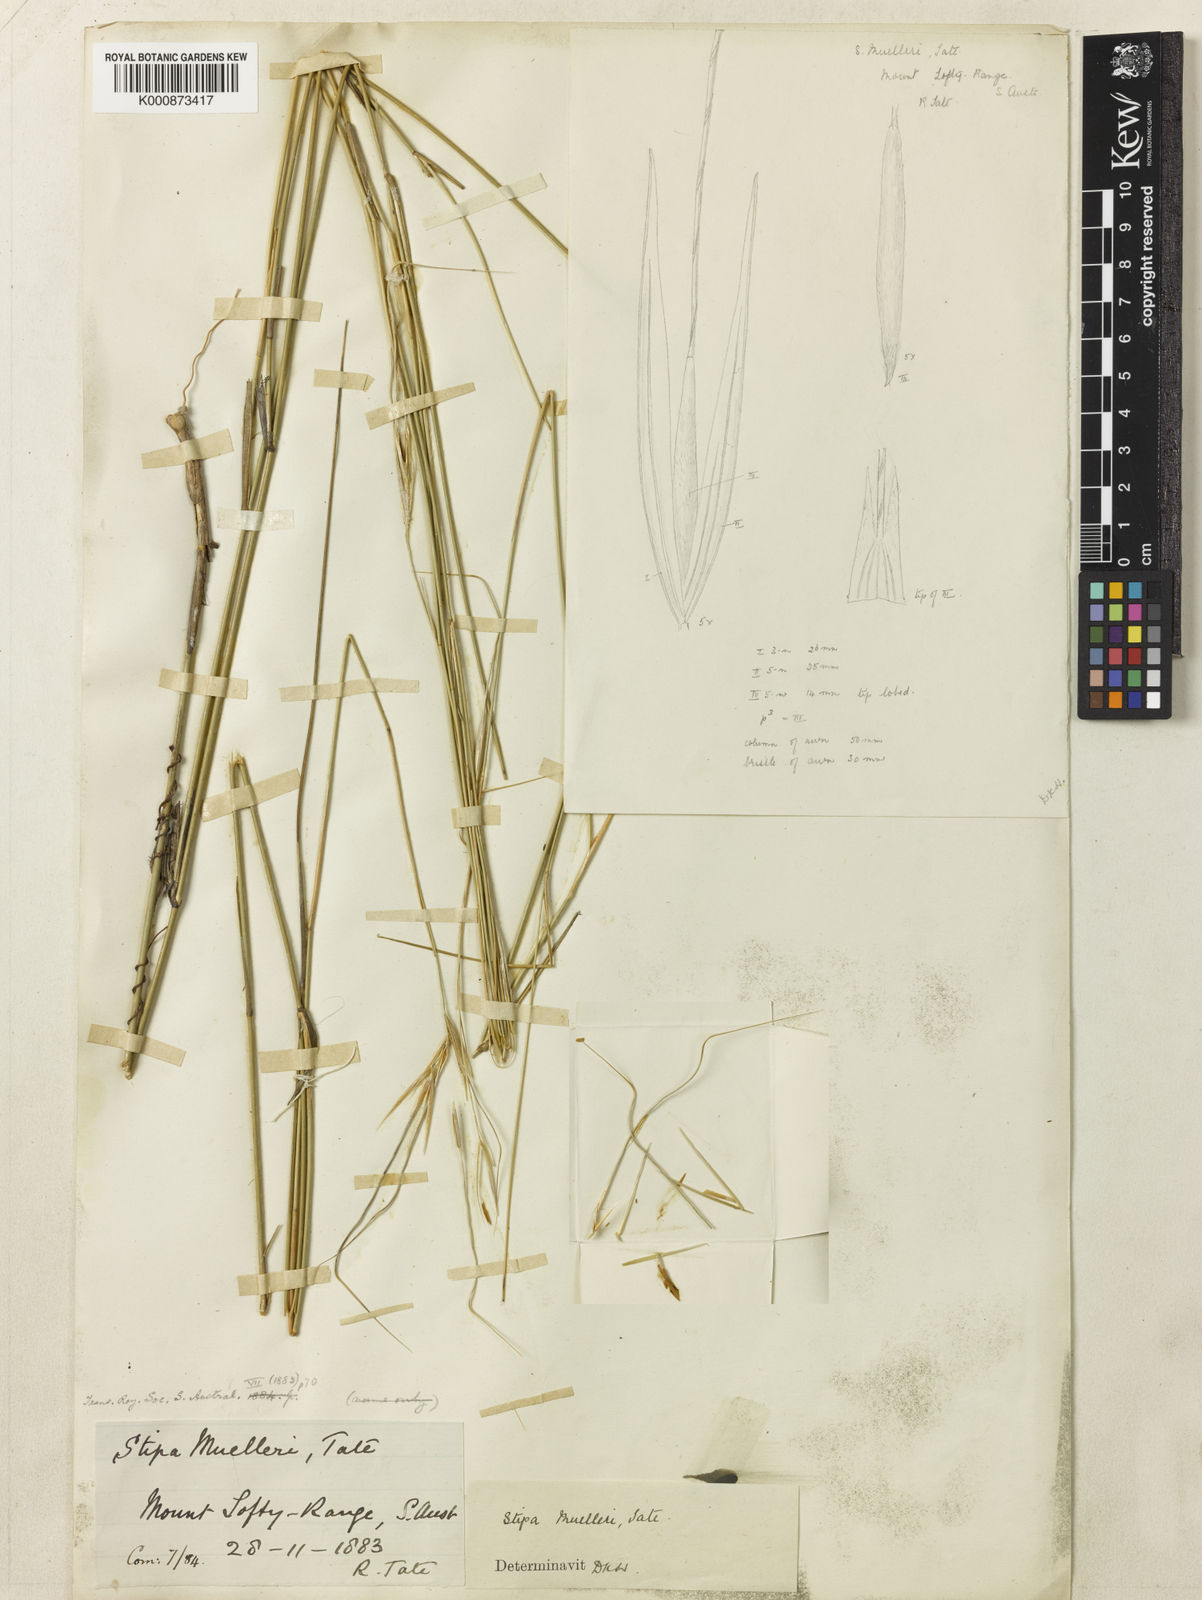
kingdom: Plantae
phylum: Tracheophyta
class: Liliopsida
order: Poales
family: Poaceae
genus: Austrostipa
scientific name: Austrostipa muelleri
